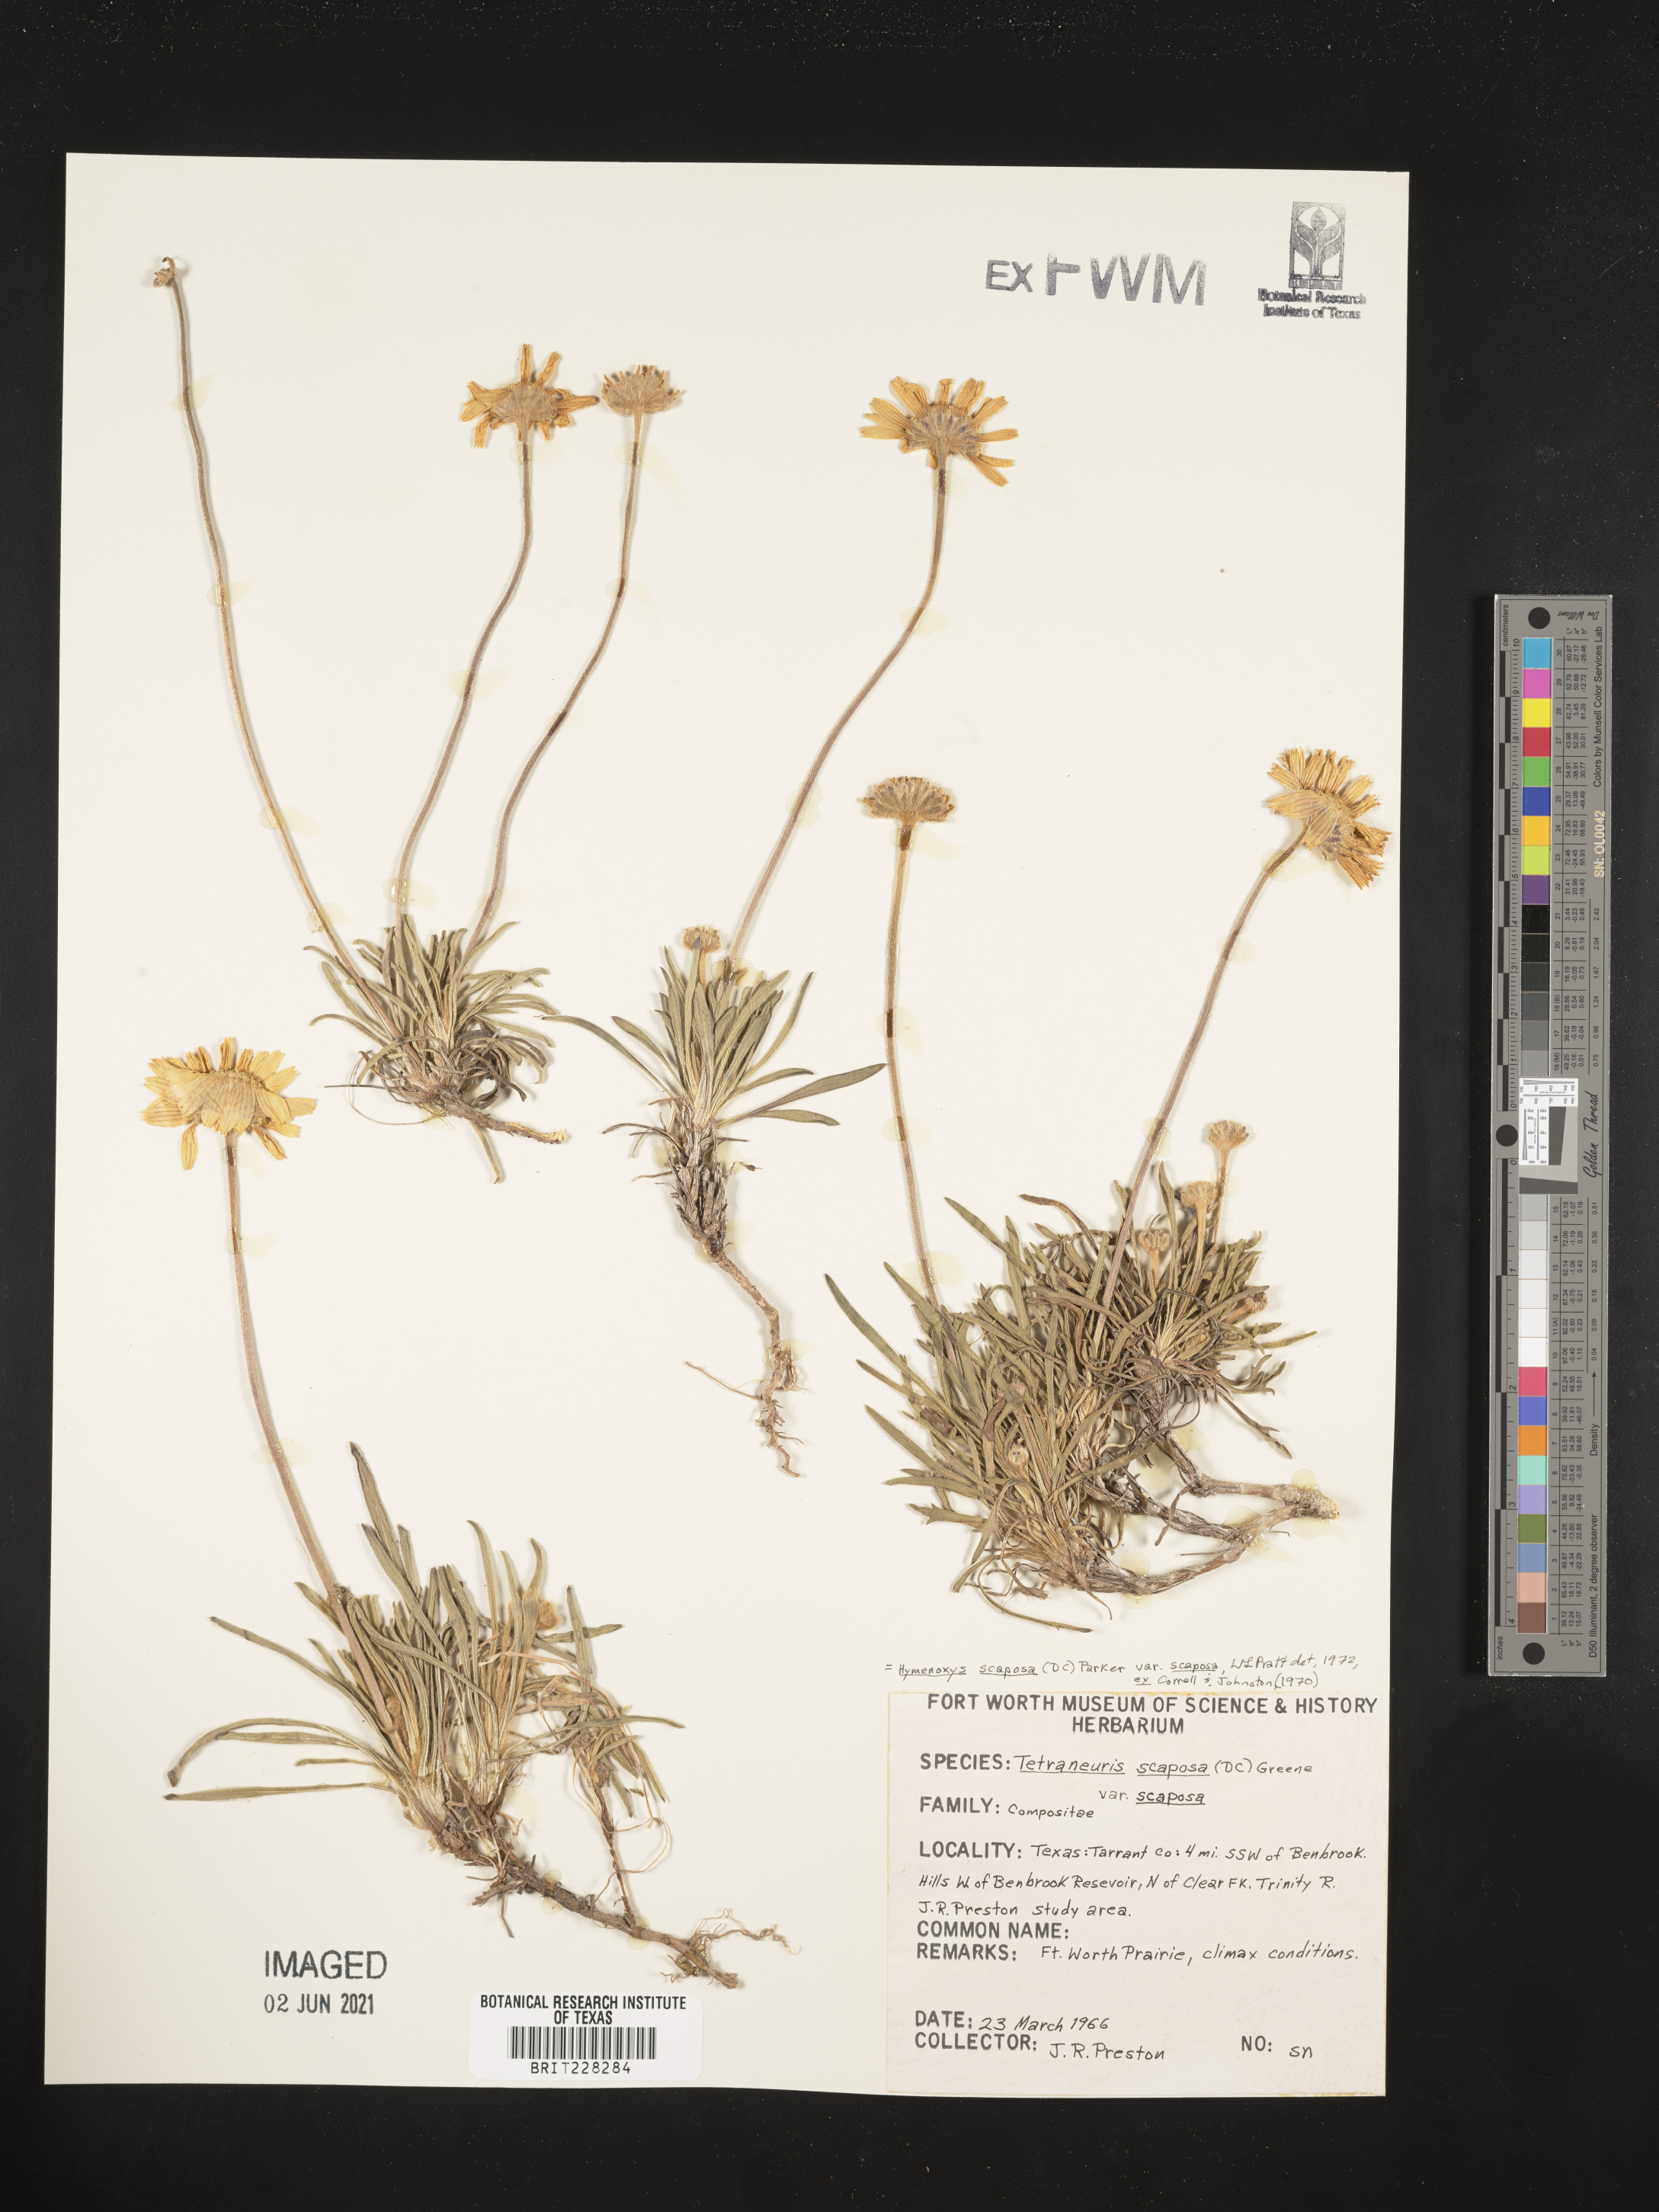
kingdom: Plantae
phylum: Tracheophyta
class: Magnoliopsida
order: Asterales
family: Asteraceae
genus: Tetraneuris
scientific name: Tetraneuris scaposa
